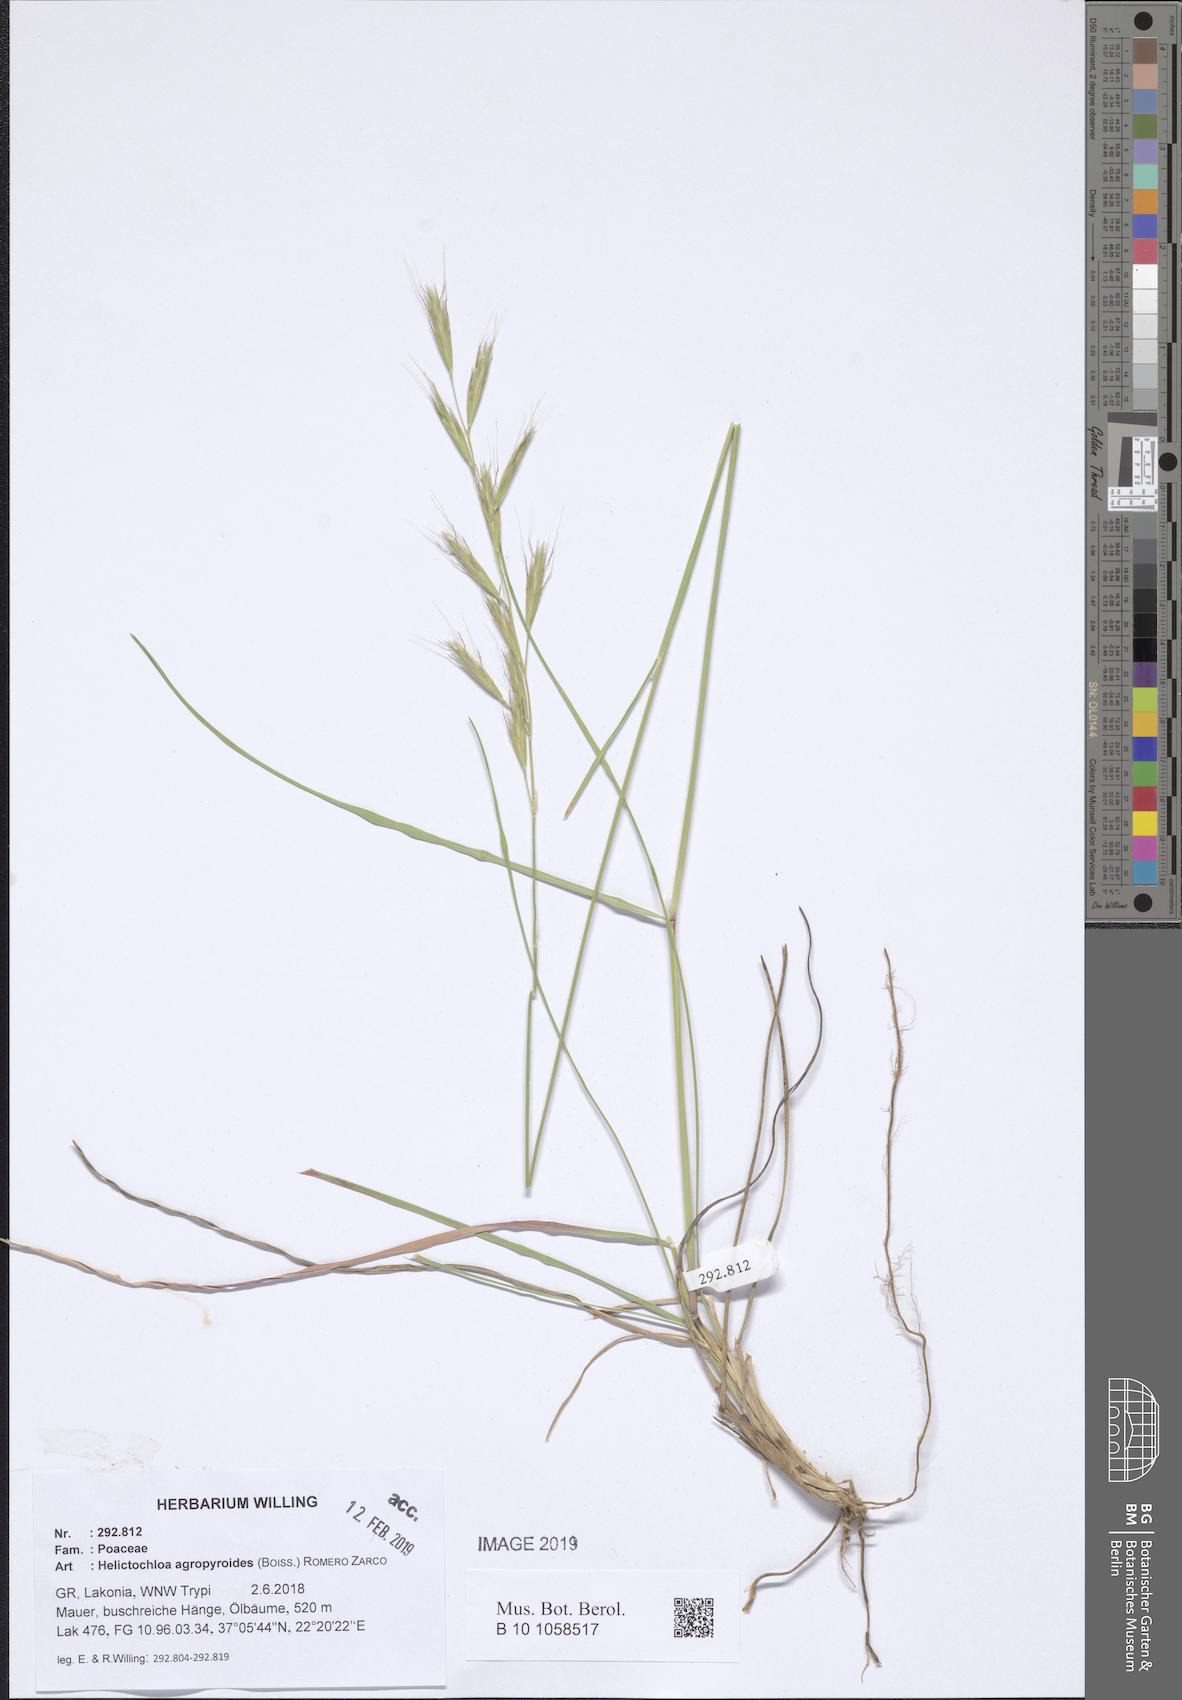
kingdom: Plantae
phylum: Tracheophyta
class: Liliopsida
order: Poales
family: Poaceae
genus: Helictochloa
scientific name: Helictochloa agropyroides
